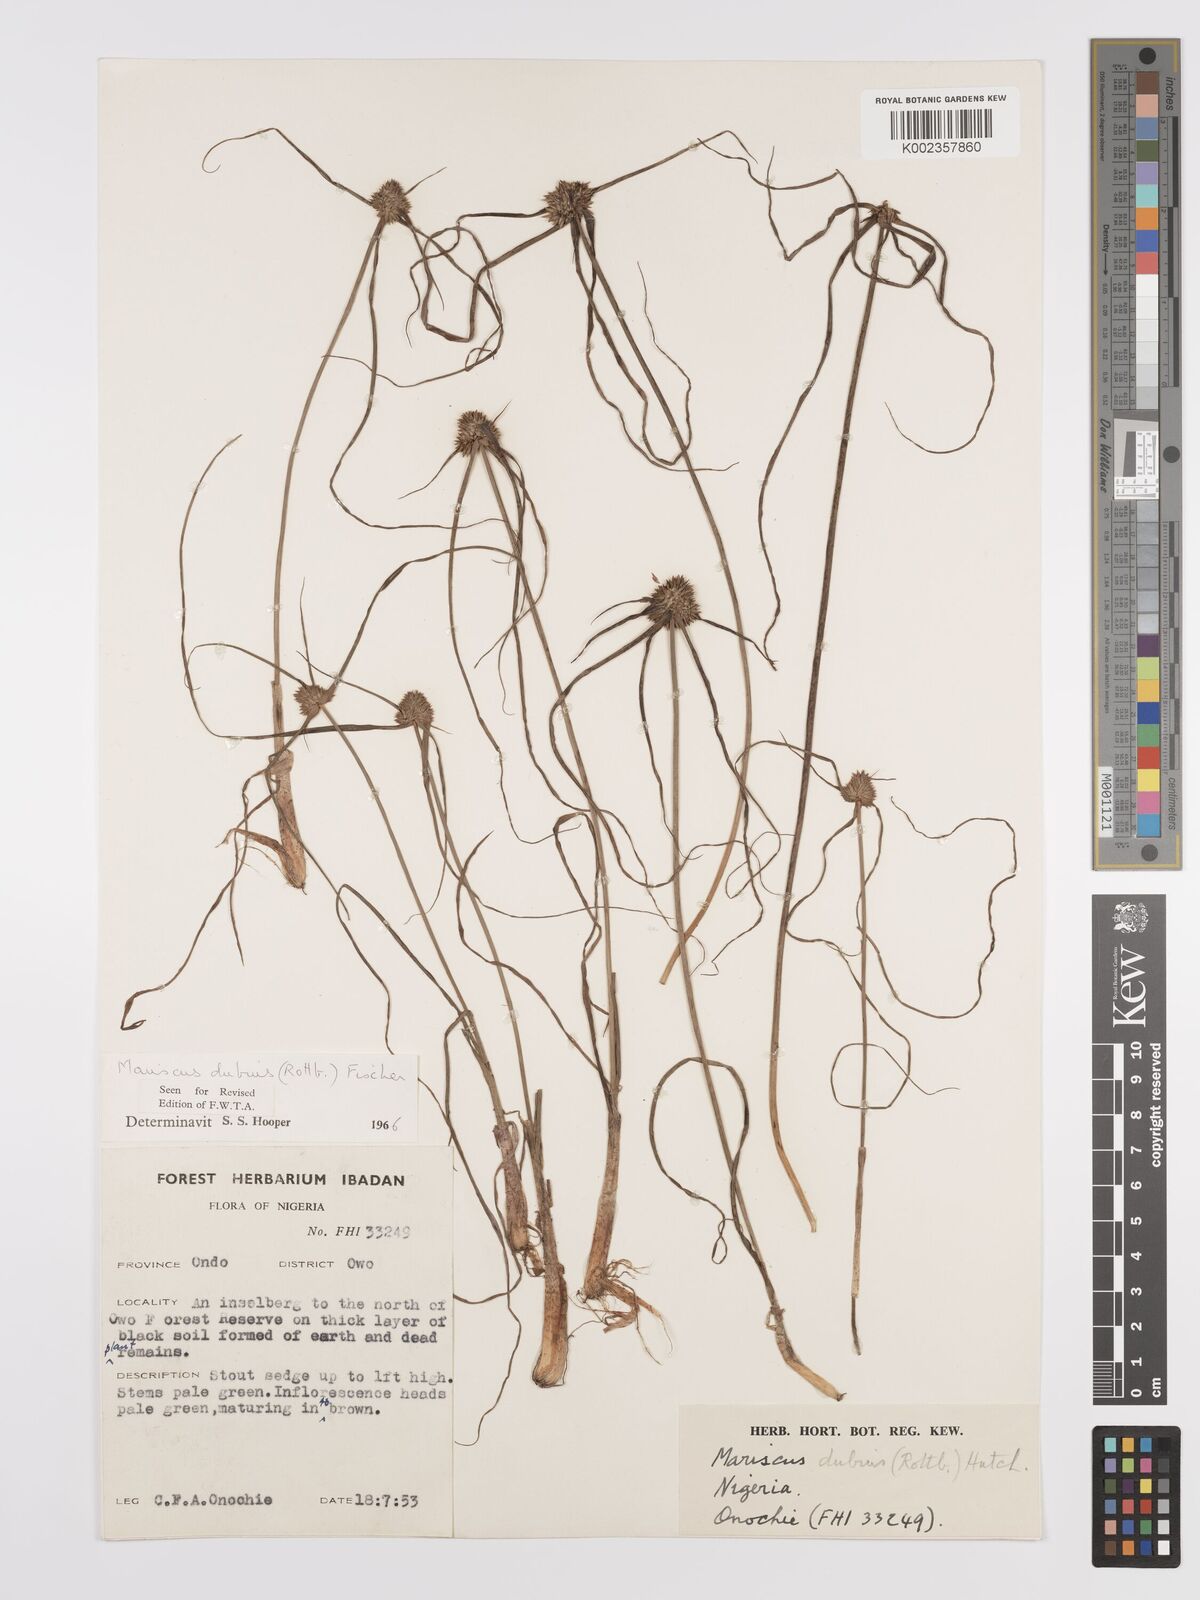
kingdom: Plantae
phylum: Tracheophyta
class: Liliopsida
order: Poales
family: Cyperaceae
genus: Cyperus
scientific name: Cyperus dubius
